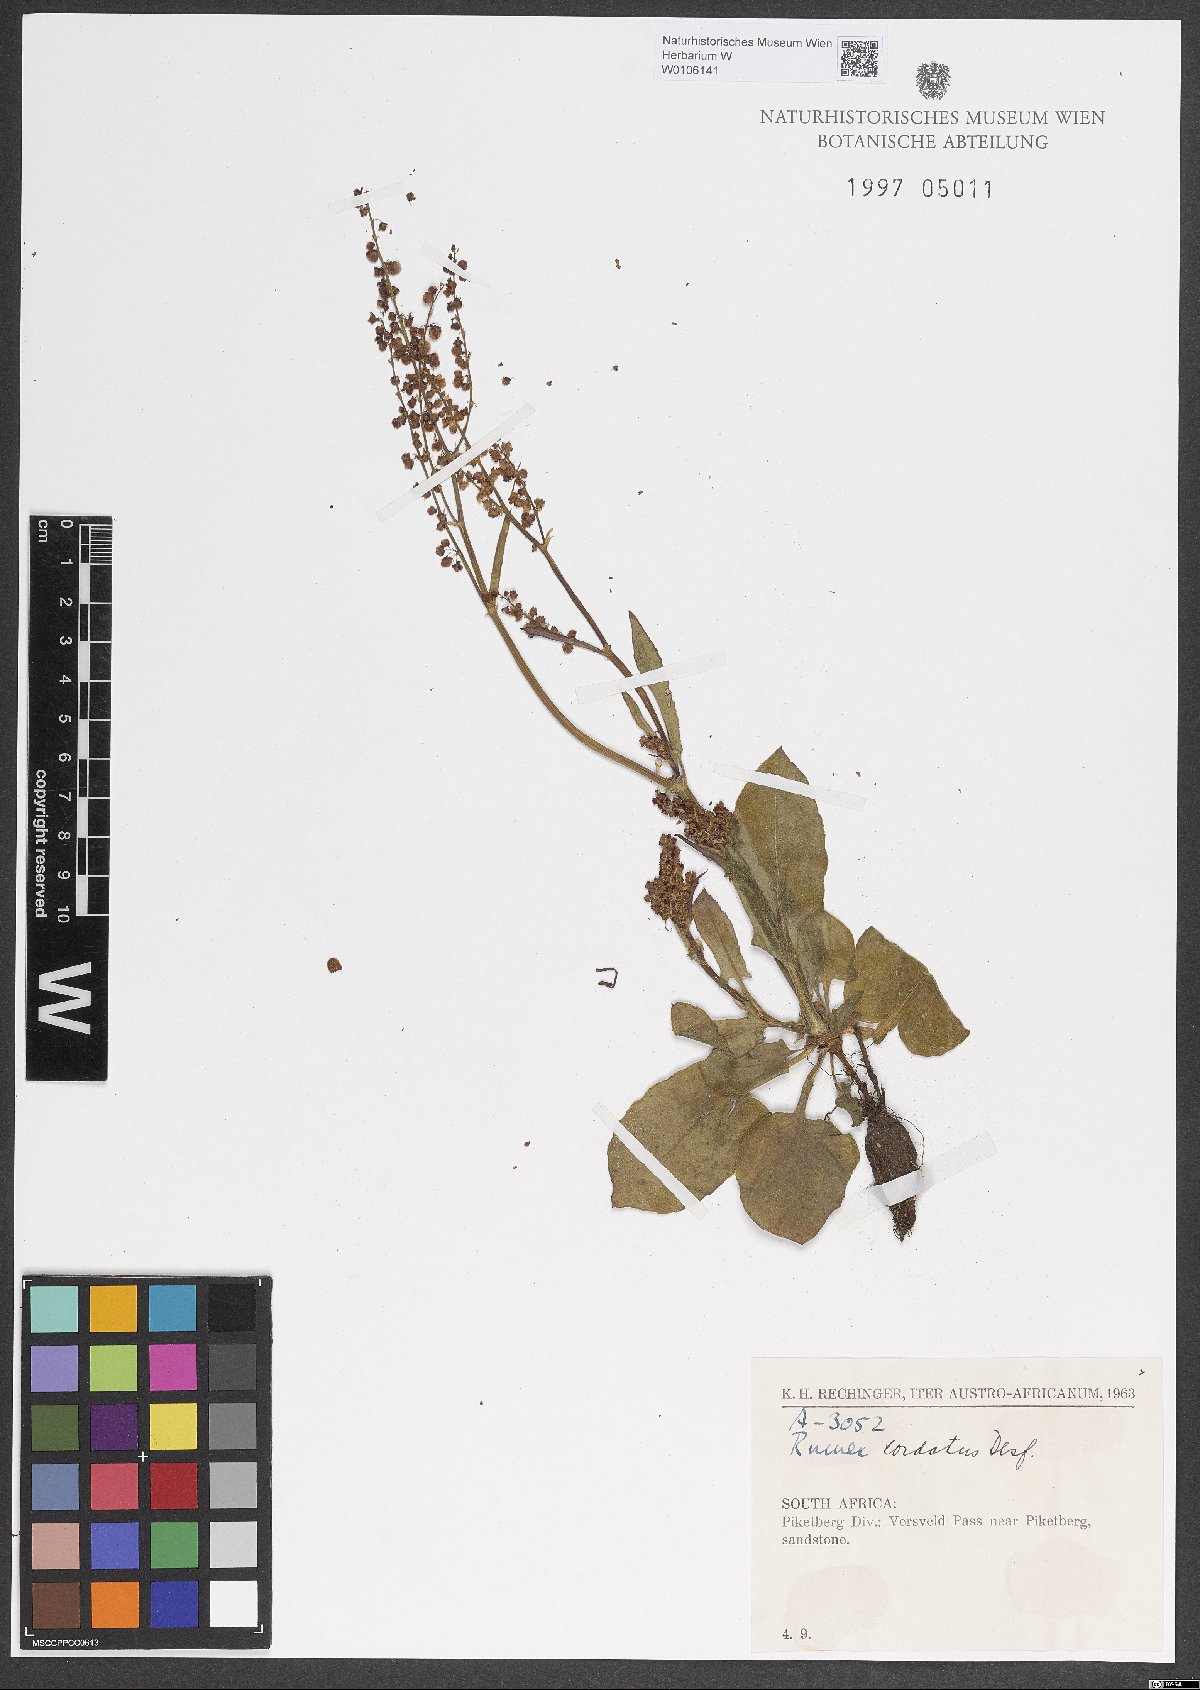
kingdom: Plantae
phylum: Tracheophyta
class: Magnoliopsida
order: Caryophyllales
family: Polygonaceae
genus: Rumex
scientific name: Rumex cordatus
